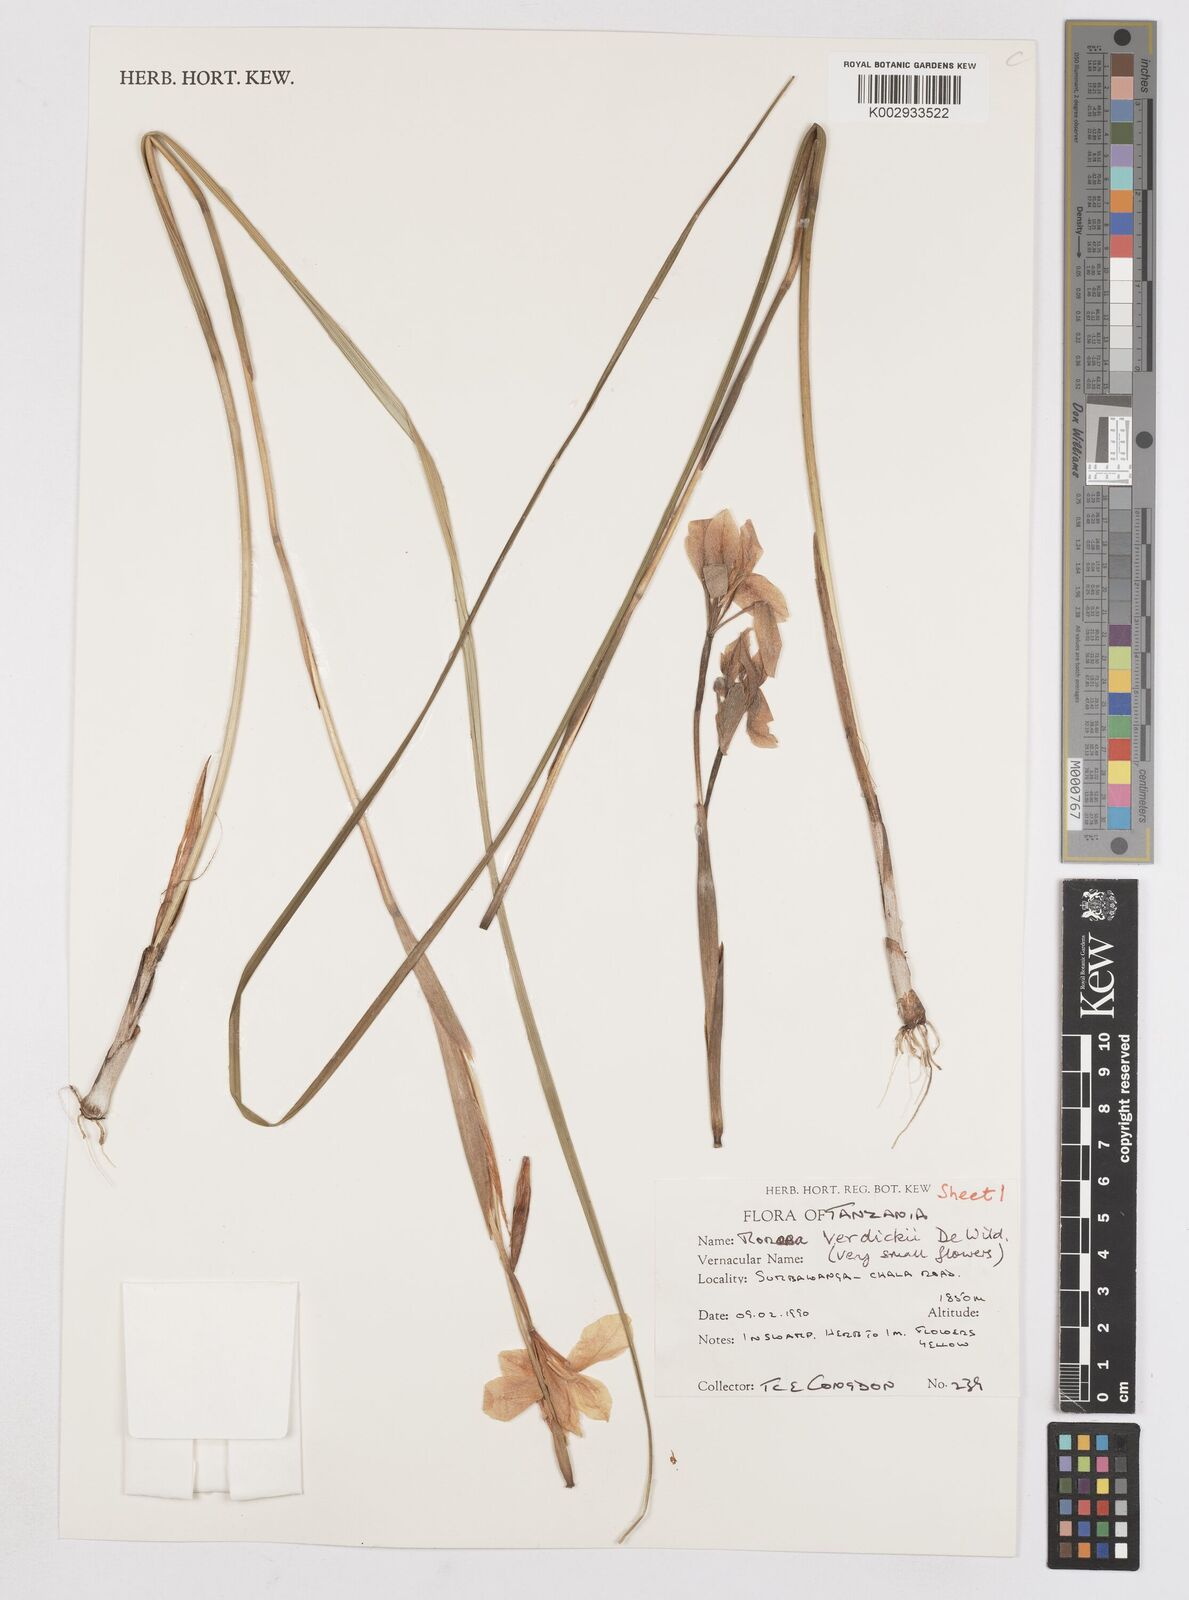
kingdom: Plantae
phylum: Tracheophyta
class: Liliopsida
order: Asparagales
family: Iridaceae
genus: Moraea
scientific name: Moraea bella
